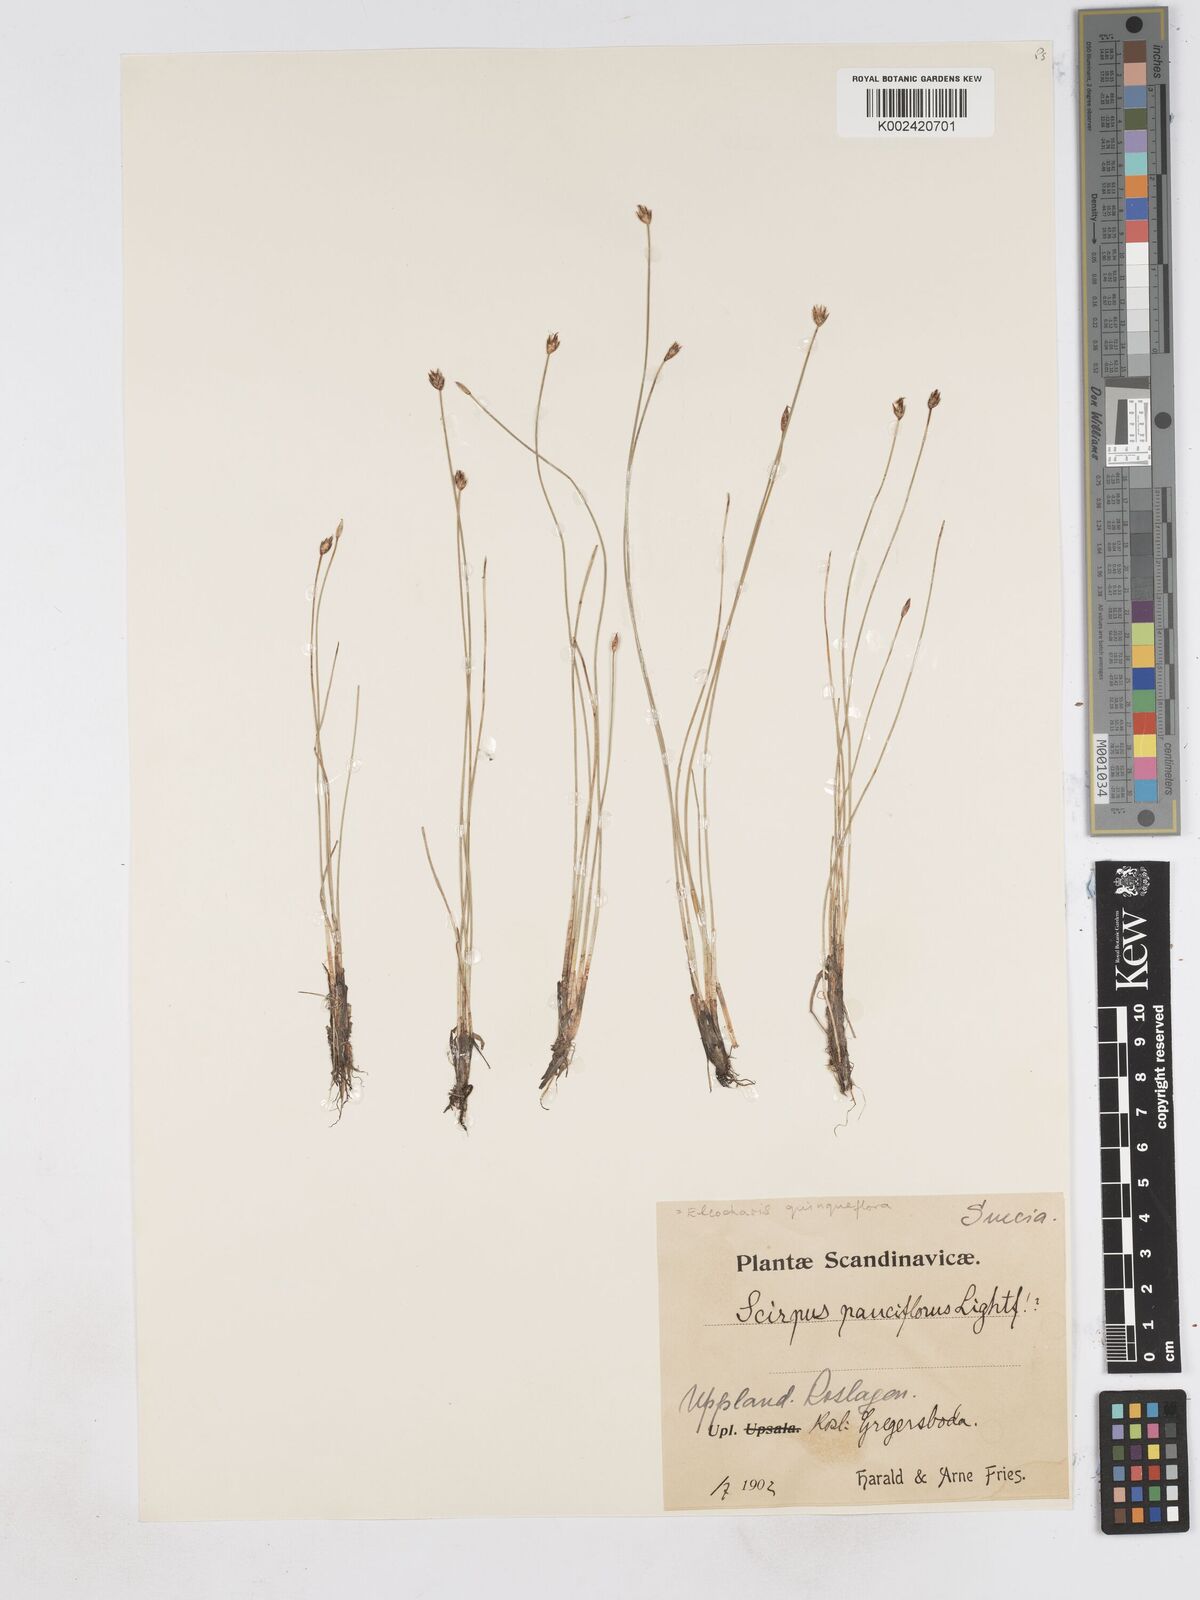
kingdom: Plantae
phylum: Tracheophyta
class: Liliopsida
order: Poales
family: Cyperaceae
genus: Eleocharis
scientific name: Eleocharis quinqueflora
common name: Few-flowered spike-rush
